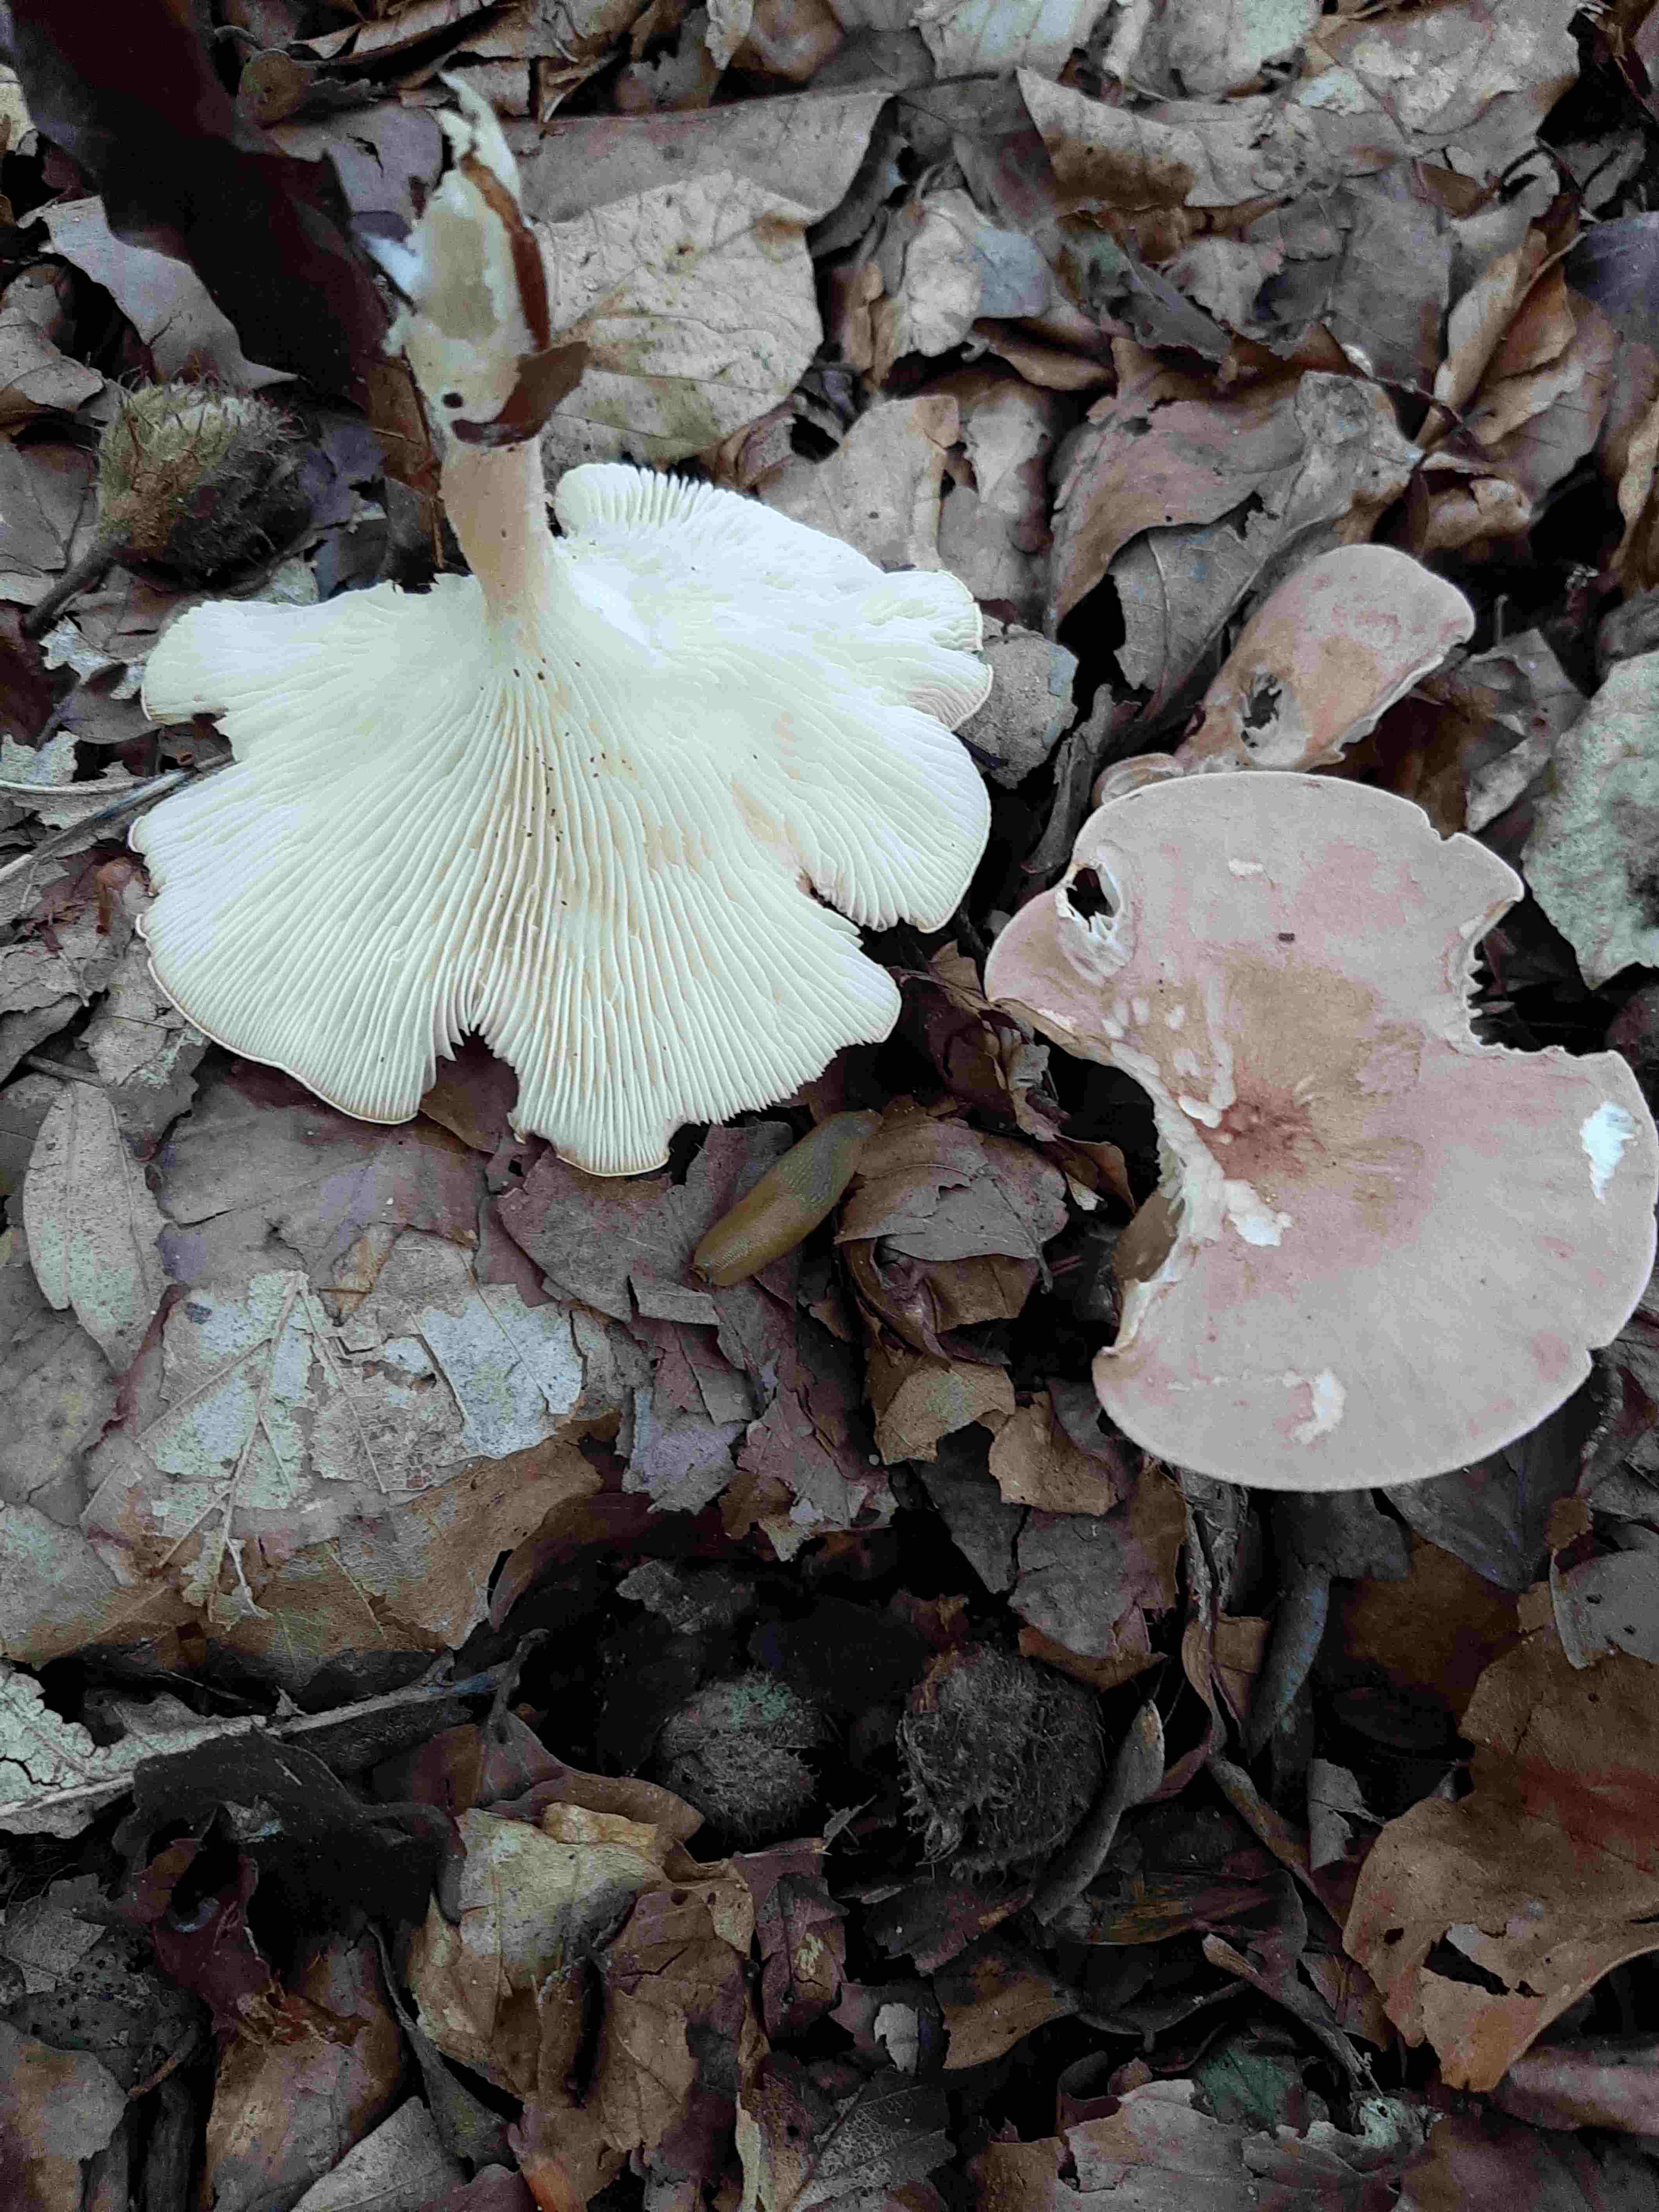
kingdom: Fungi
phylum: Basidiomycota
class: Agaricomycetes
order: Agaricales
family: Tricholomataceae
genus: Infundibulicybe
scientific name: Infundibulicybe gibba
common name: almindelig tragthat
